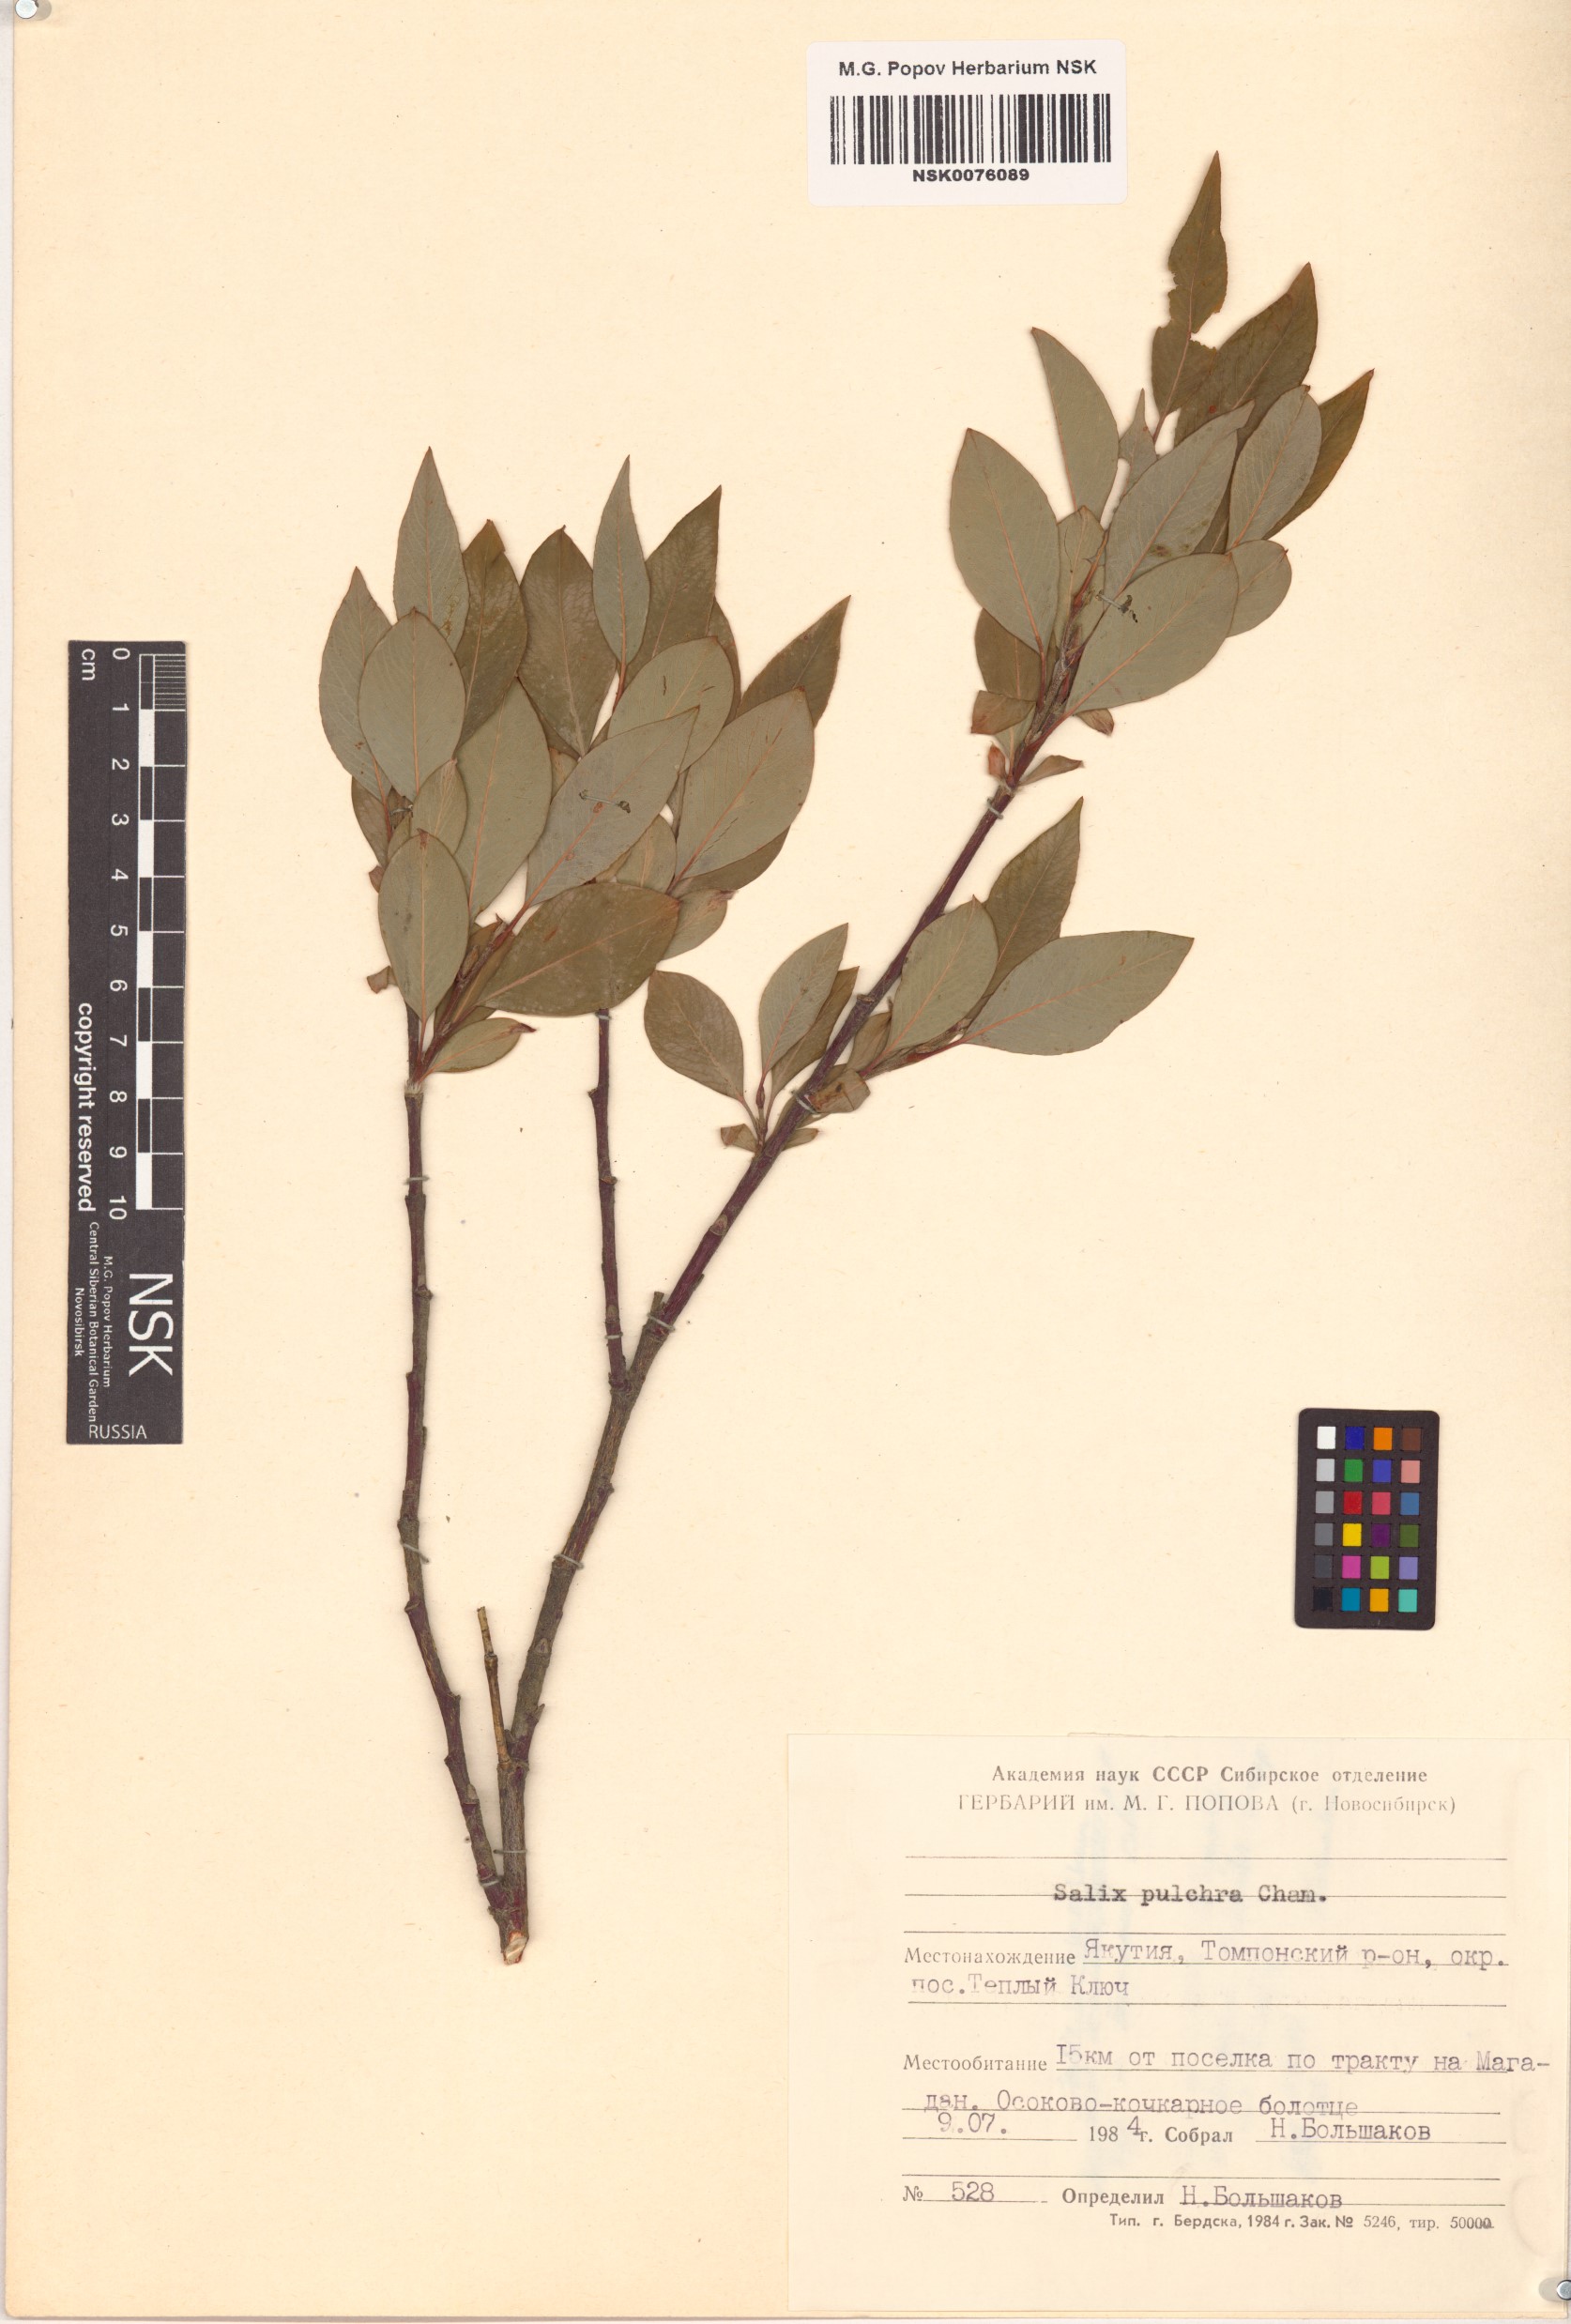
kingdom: Plantae
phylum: Tracheophyta
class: Magnoliopsida
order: Malpighiales
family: Salicaceae
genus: Salix
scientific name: Salix pulchra
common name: Diamond-leaved willow
